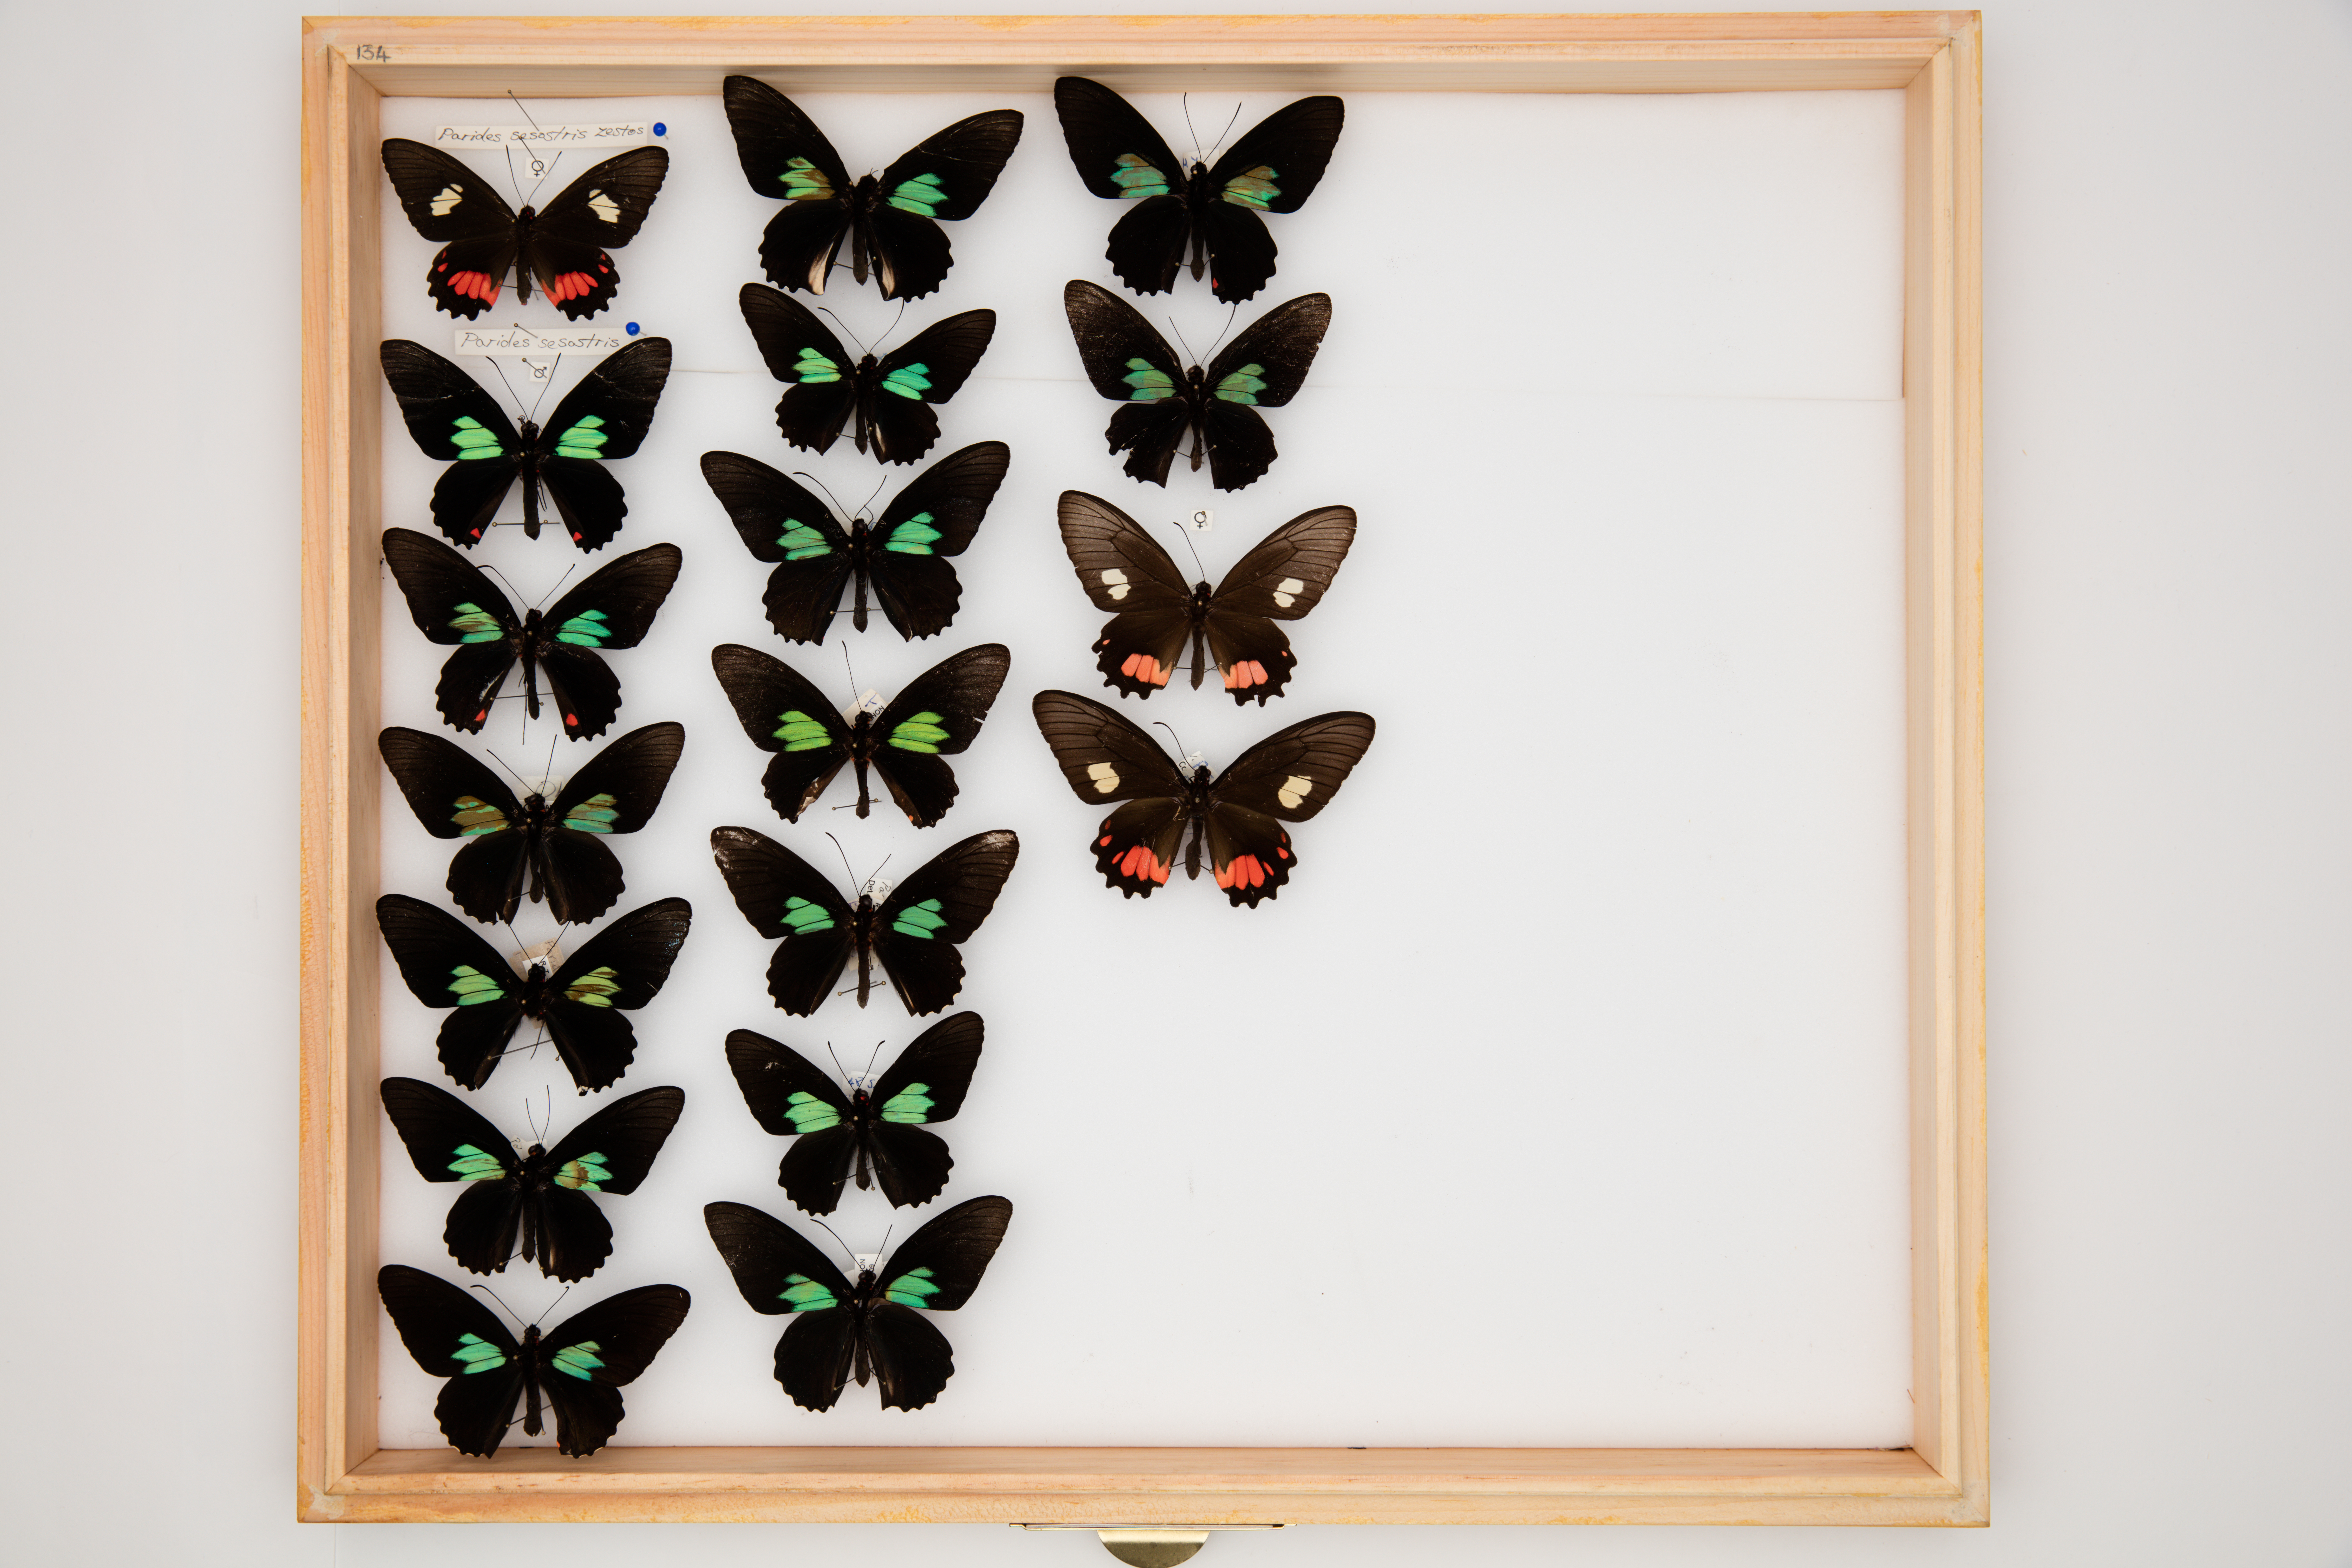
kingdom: Animalia
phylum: Arthropoda
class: Insecta
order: Lepidoptera
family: Papilionidae
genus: Parides
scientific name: Parides sesostris
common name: Southern cattle heart
